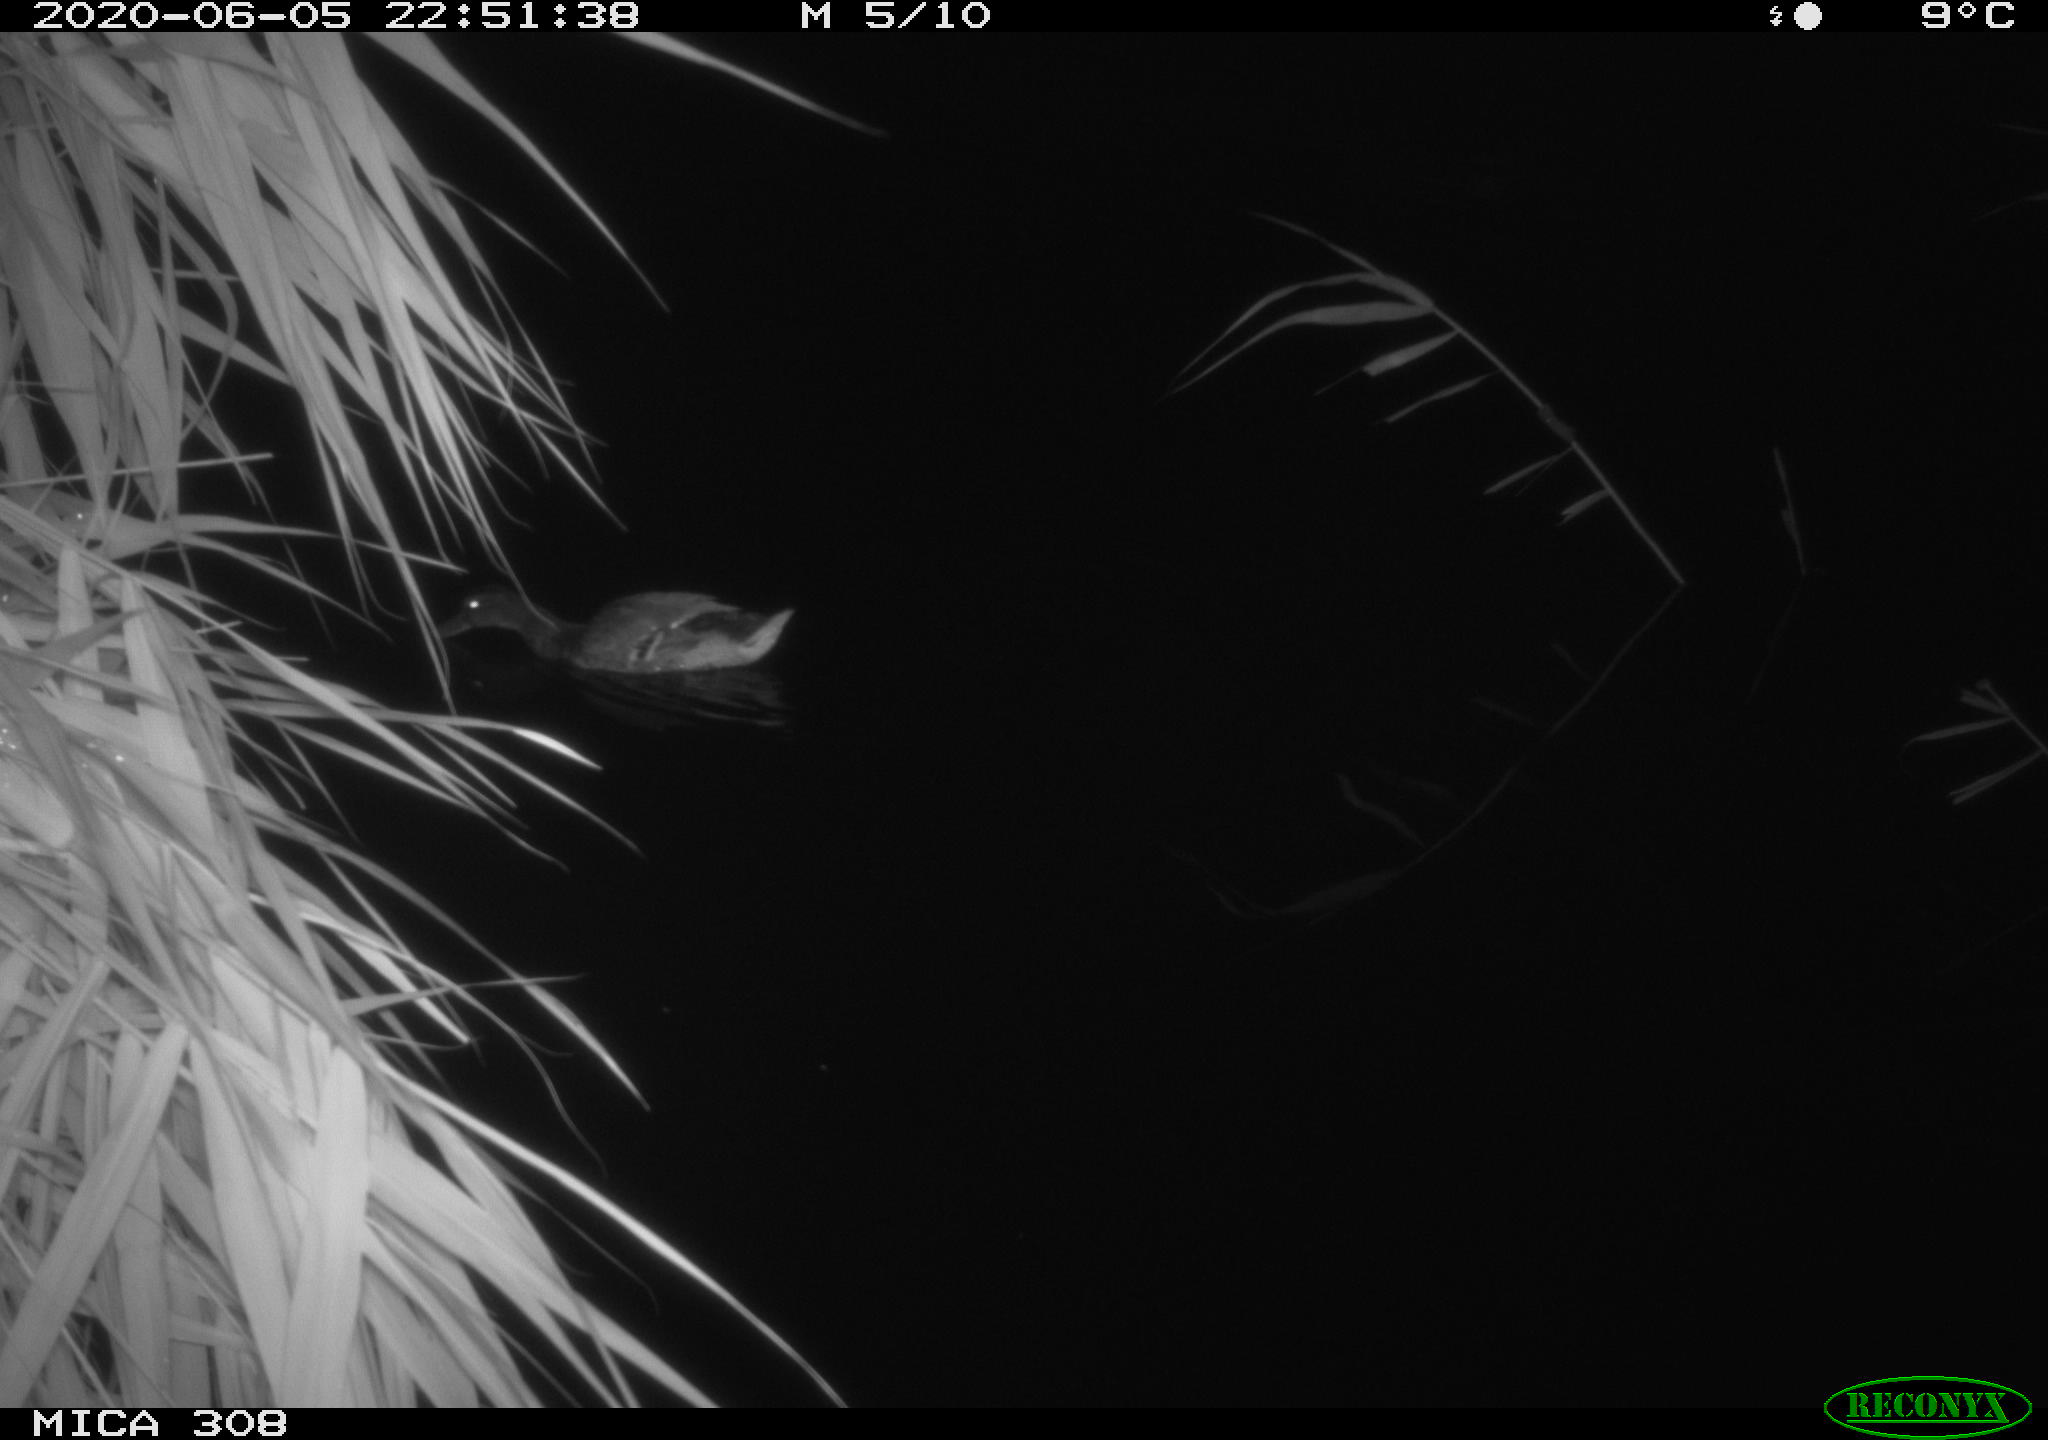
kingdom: Animalia
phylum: Chordata
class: Aves
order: Anseriformes
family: Anatidae
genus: Anas
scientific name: Anas platyrhynchos
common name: Mallard
